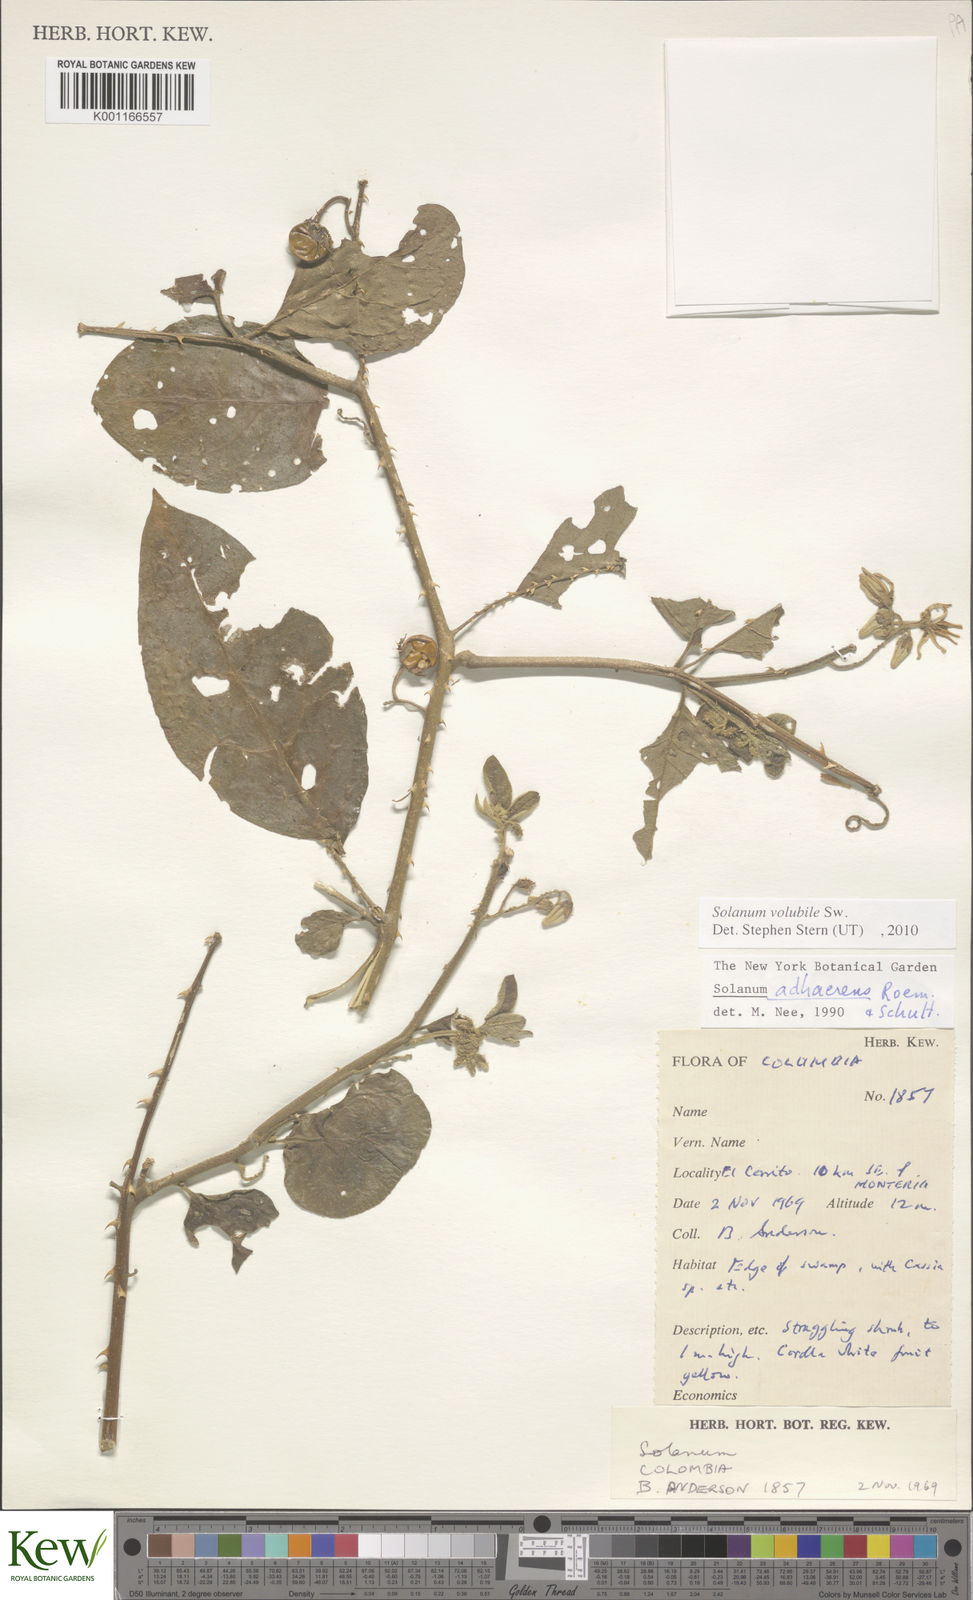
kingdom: Plantae
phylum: Tracheophyta
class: Magnoliopsida
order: Solanales
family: Solanaceae
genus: Solanum
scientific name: Solanum volubile
